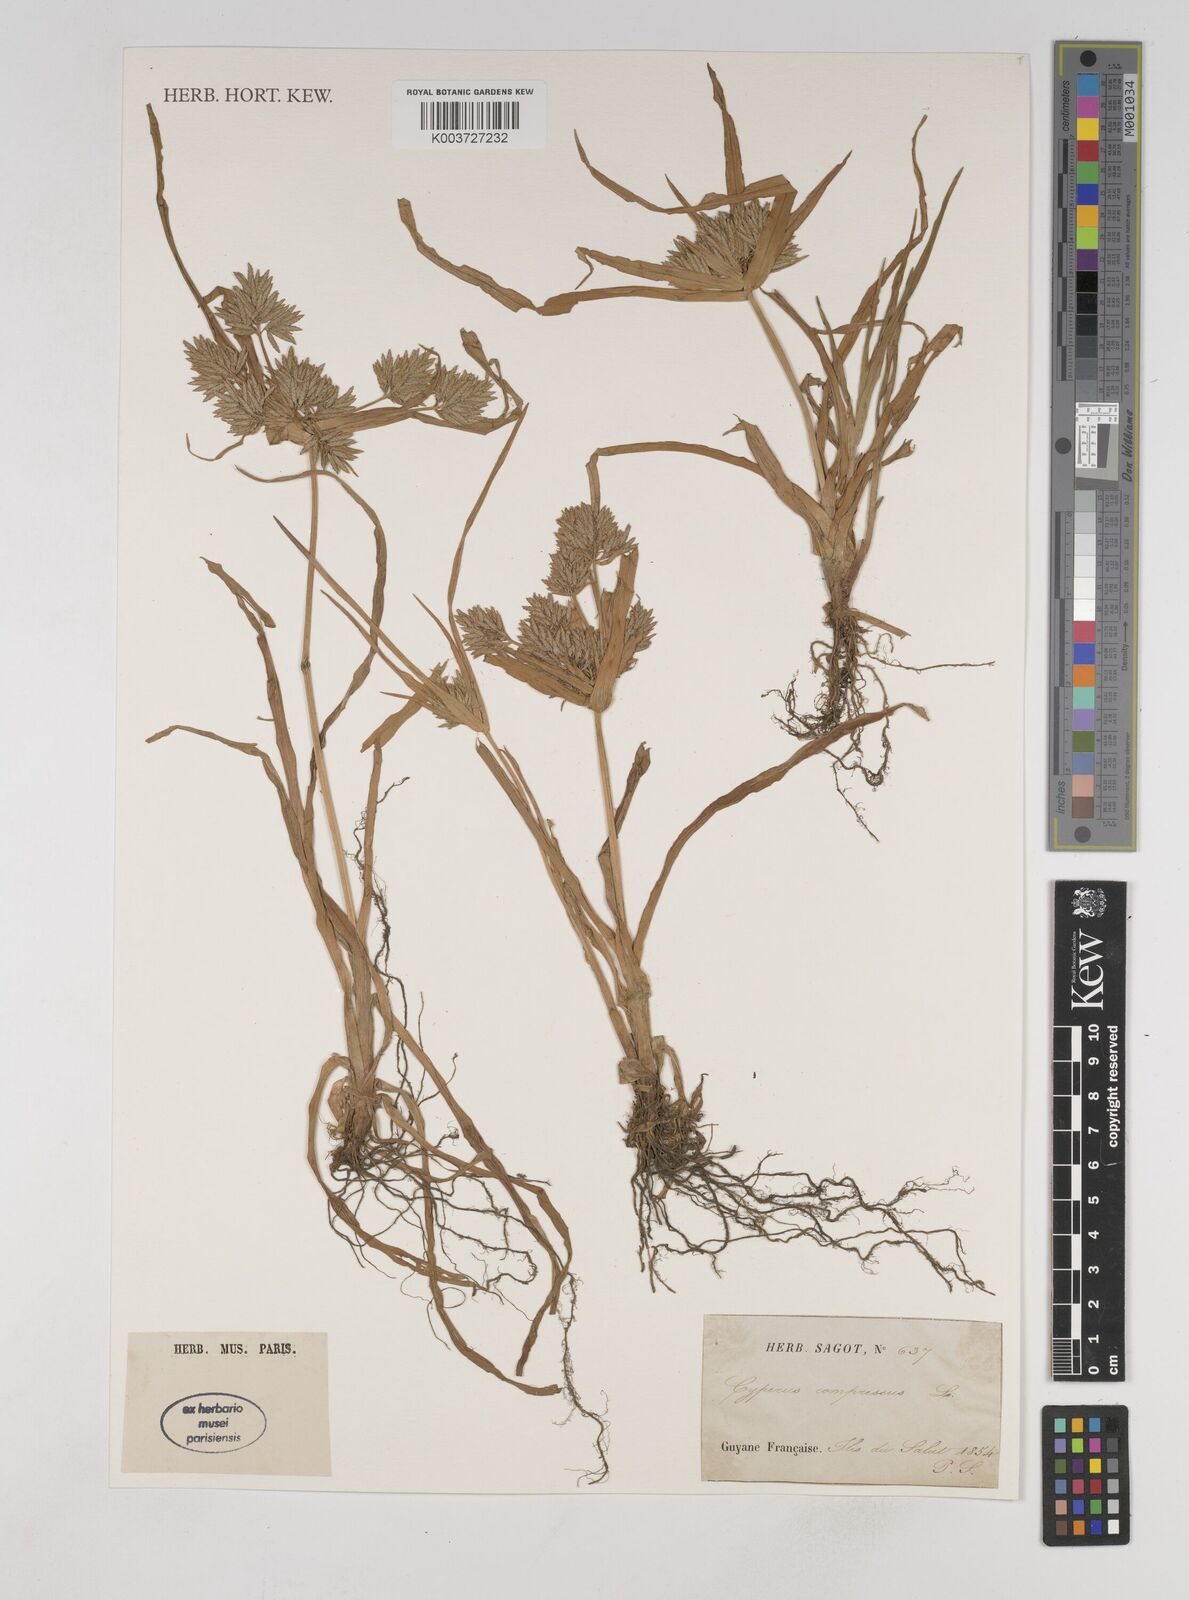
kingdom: Plantae
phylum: Tracheophyta
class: Liliopsida
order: Poales
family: Cyperaceae
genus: Cyperus
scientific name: Cyperus compressus
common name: Poorland flatsedge
